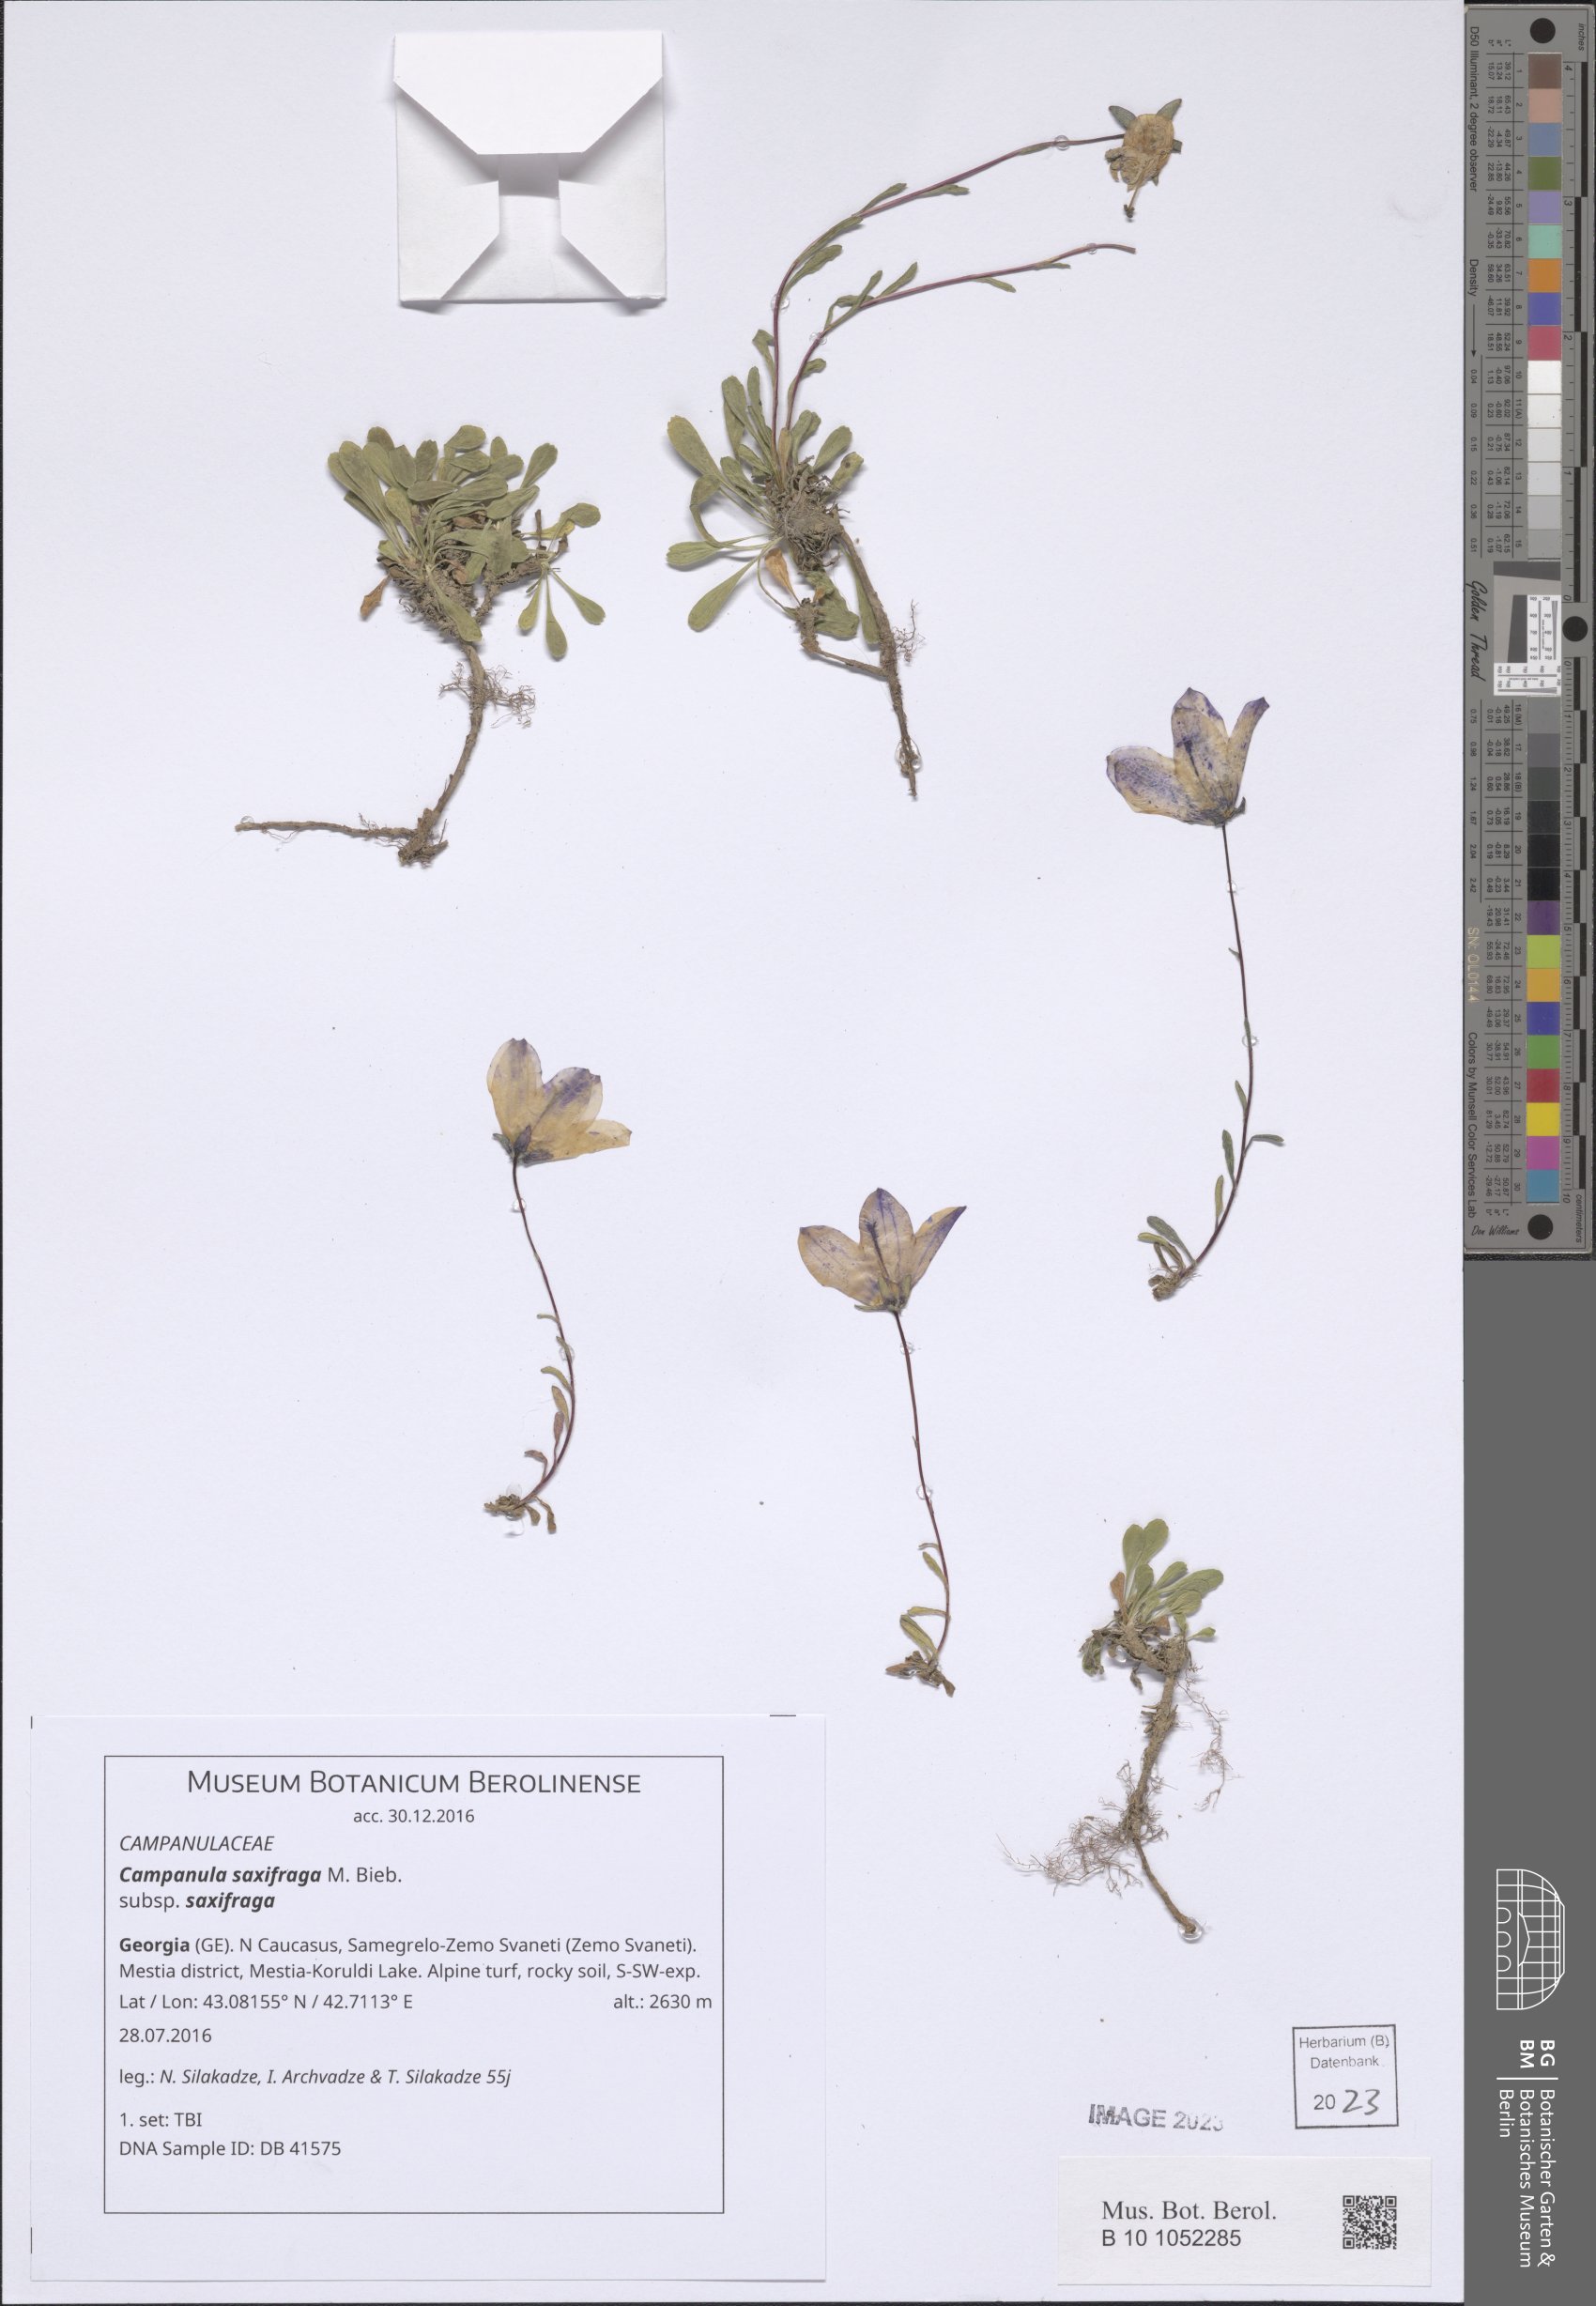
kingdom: Plantae
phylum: Tracheophyta
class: Magnoliopsida
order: Asterales
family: Campanulaceae
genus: Campanula
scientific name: Campanula saxifraga
